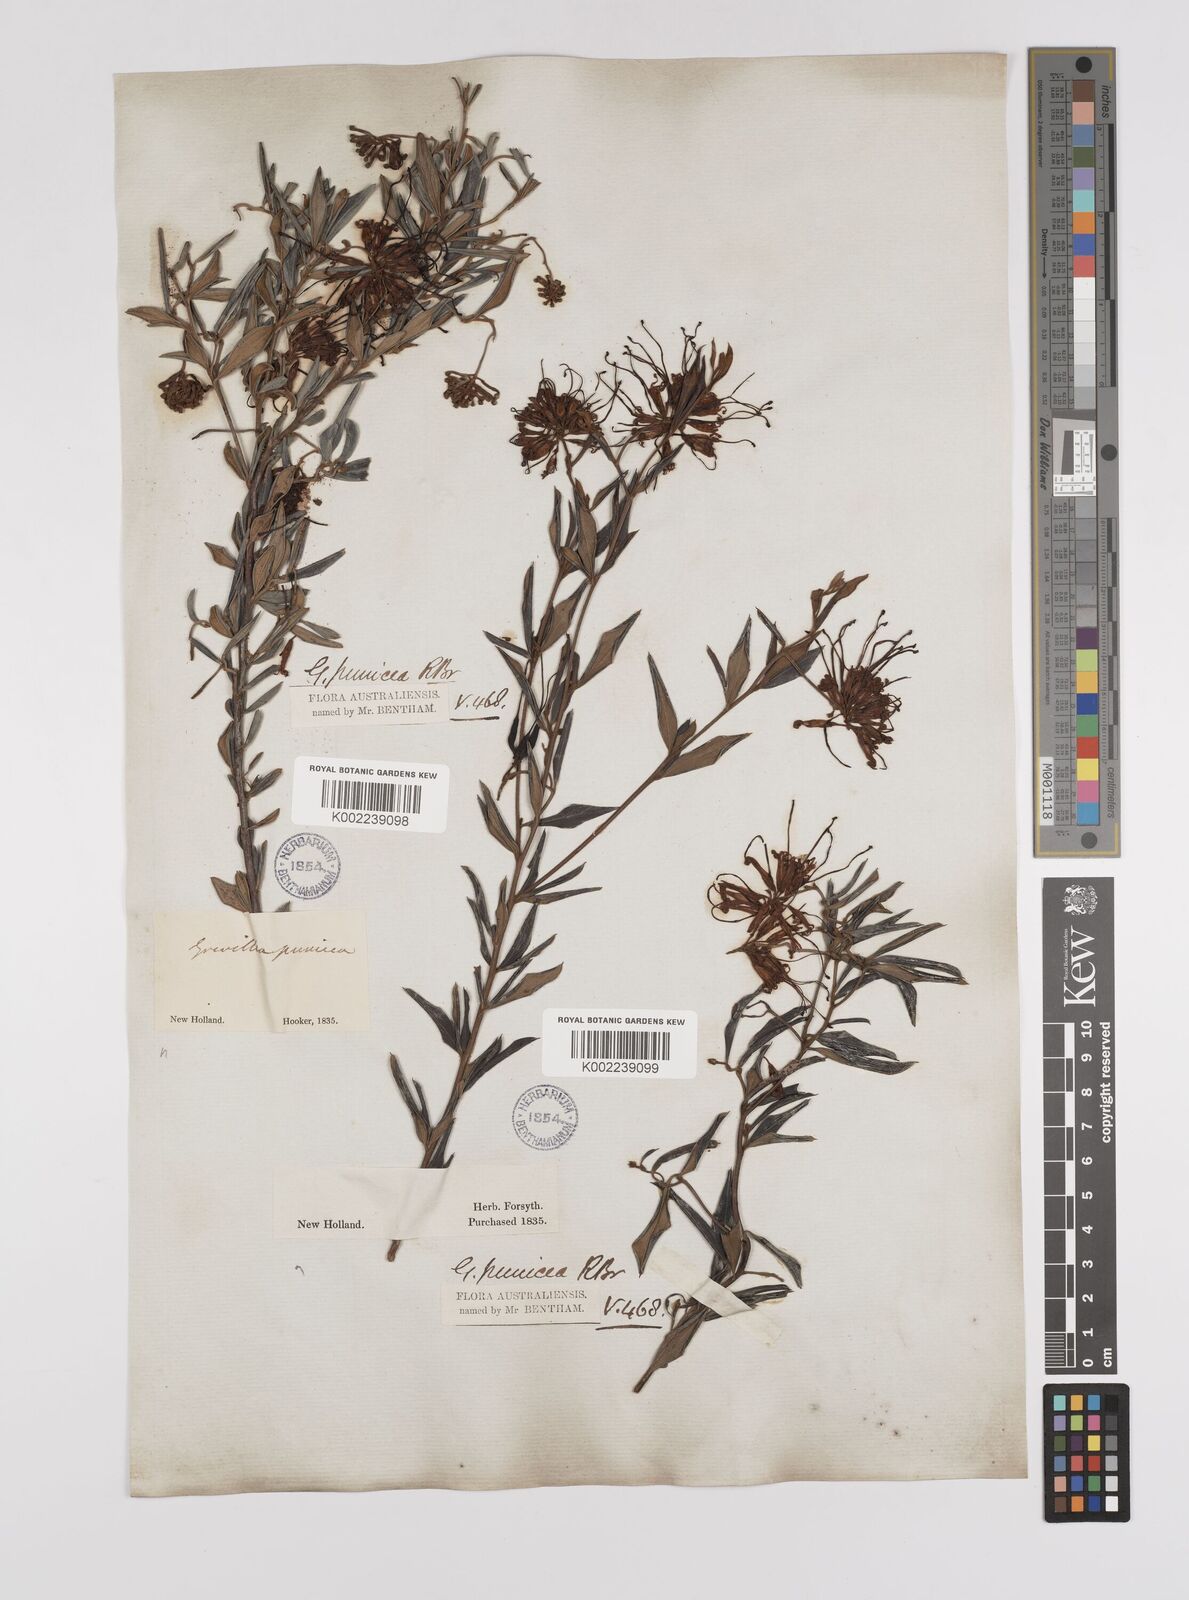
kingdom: Plantae
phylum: Tracheophyta
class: Magnoliopsida
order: Proteales
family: Proteaceae
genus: Grevillea
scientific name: Grevillea speciosa
